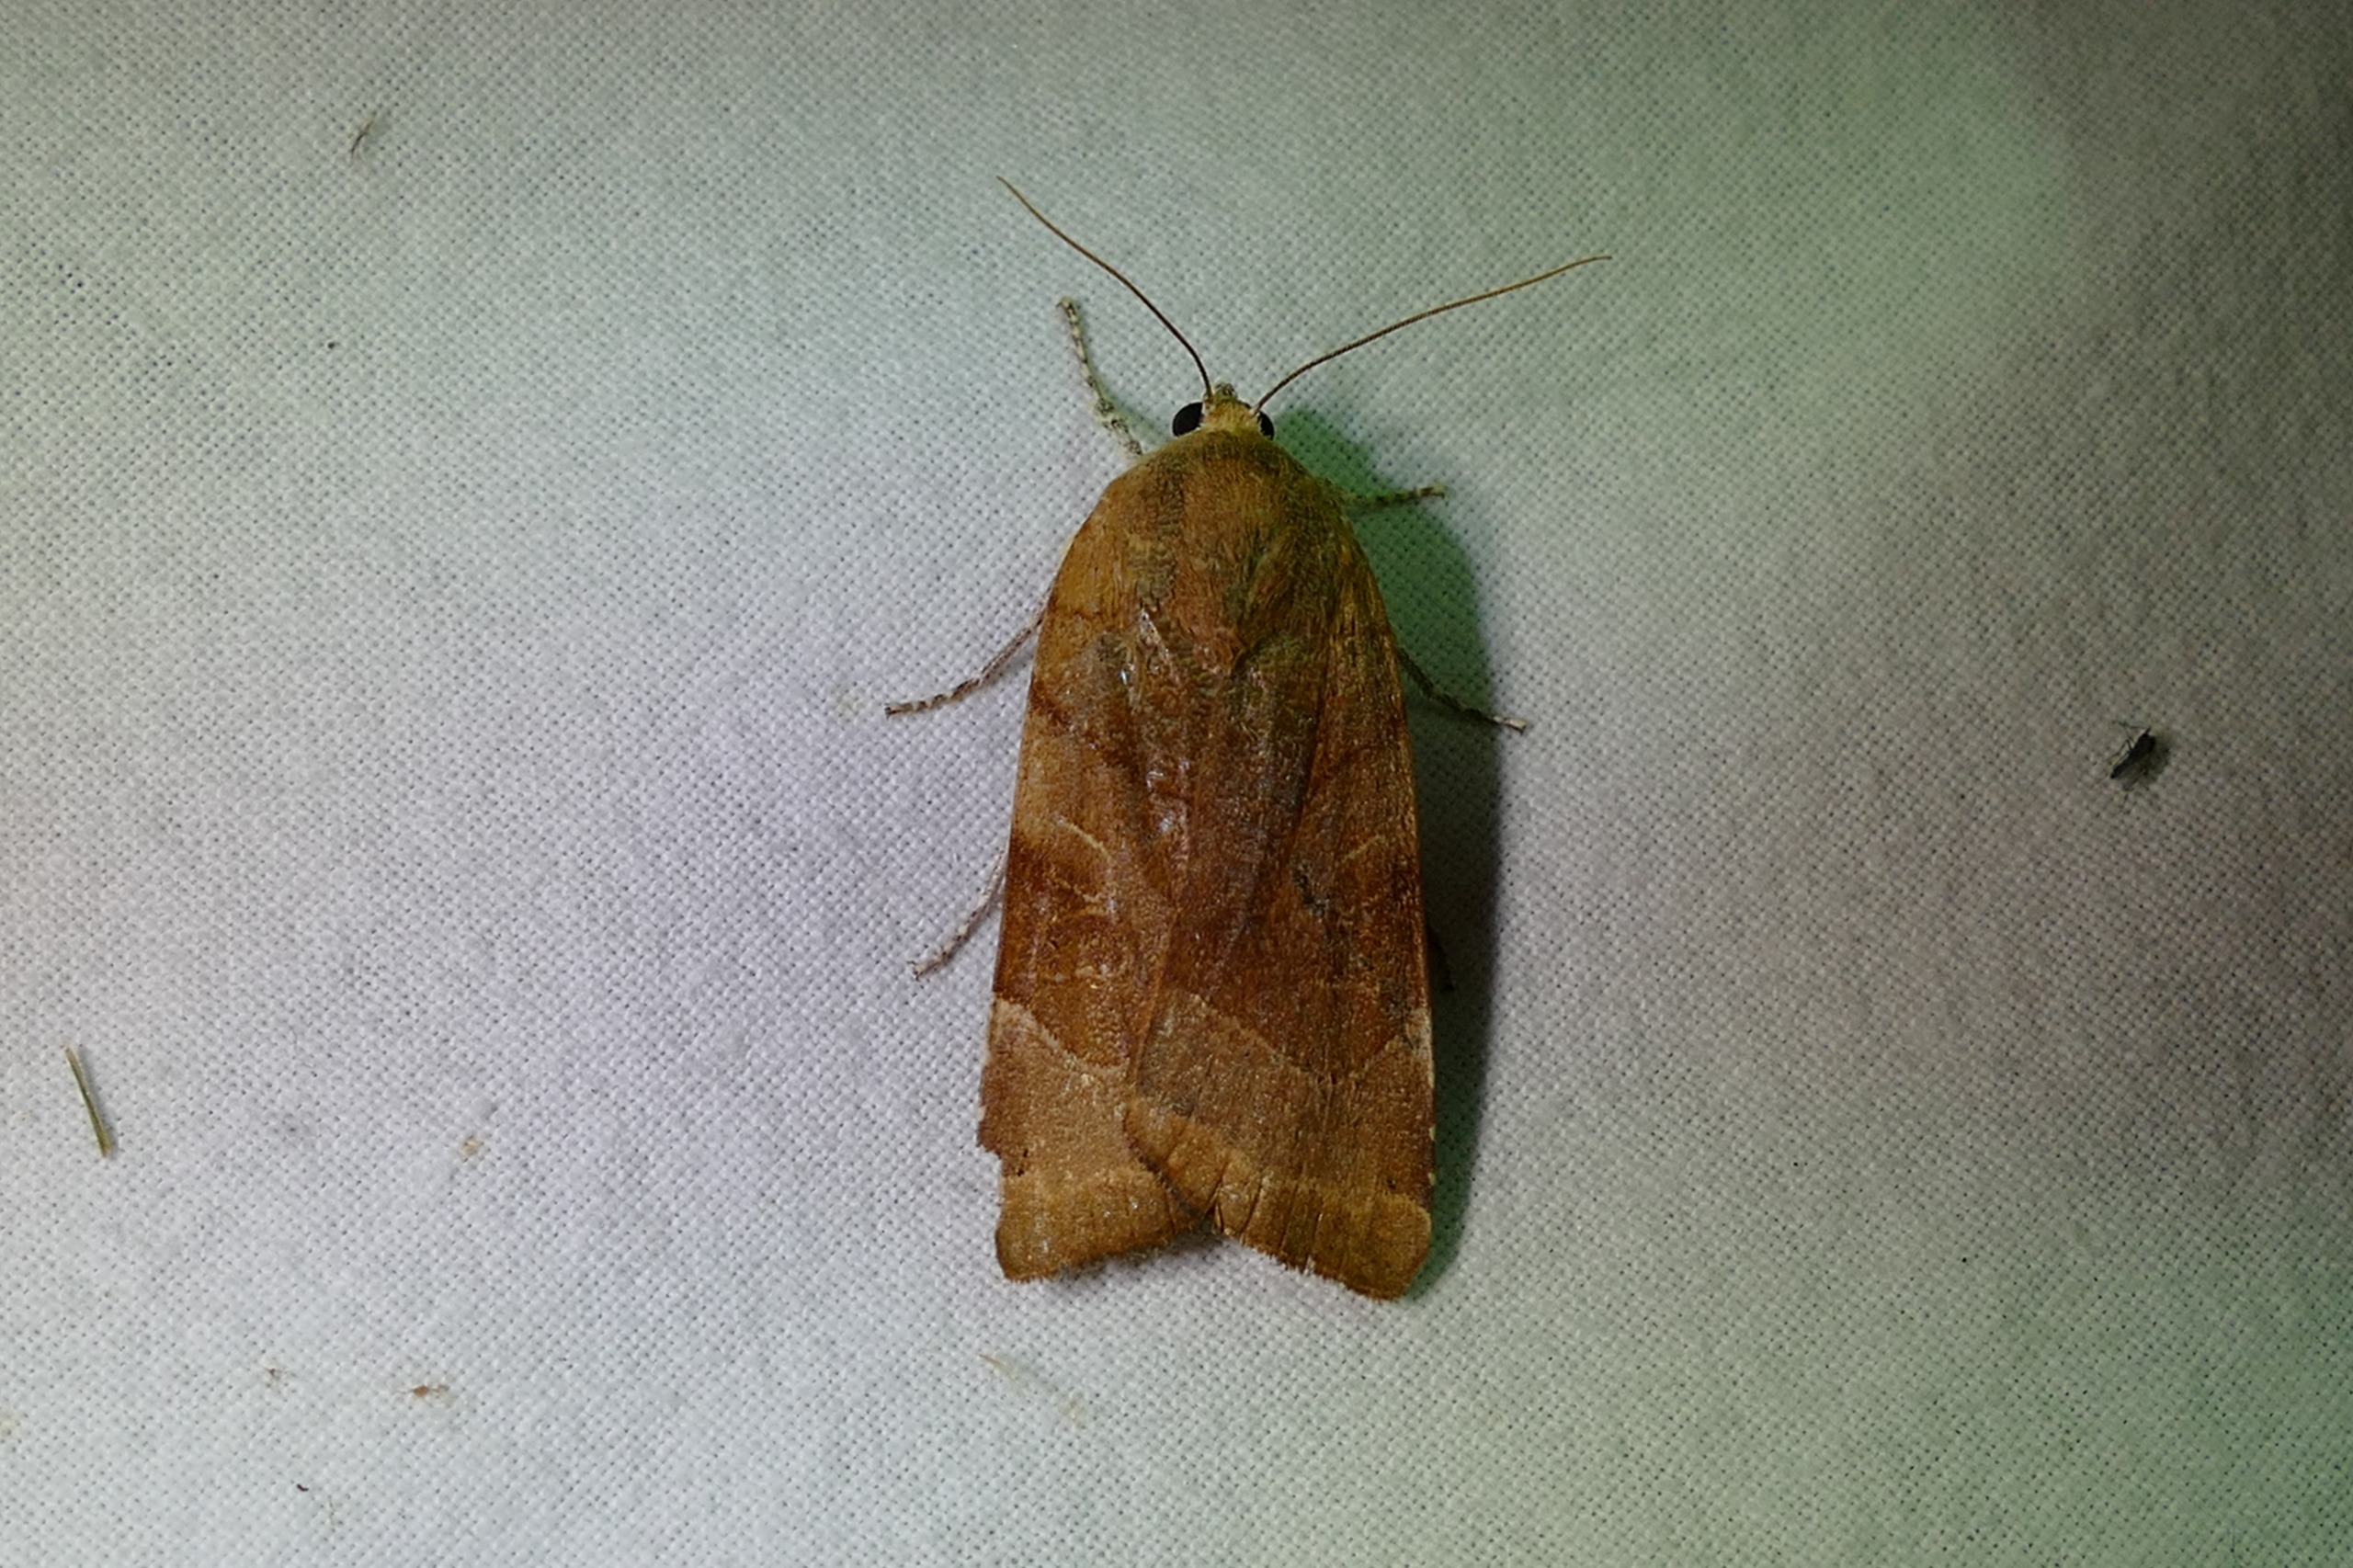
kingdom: Animalia
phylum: Arthropoda
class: Insecta
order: Lepidoptera
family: Noctuidae
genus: Noctua
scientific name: Noctua fimbriata
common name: Gul båndugle
